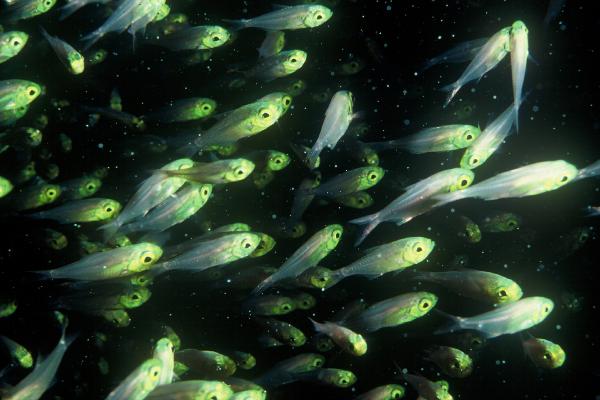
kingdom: Animalia
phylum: Chordata
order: Perciformes
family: Pempheridae
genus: Parapriacanthus
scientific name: Parapriacanthus ransonneti
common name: Pigmy sweeper
